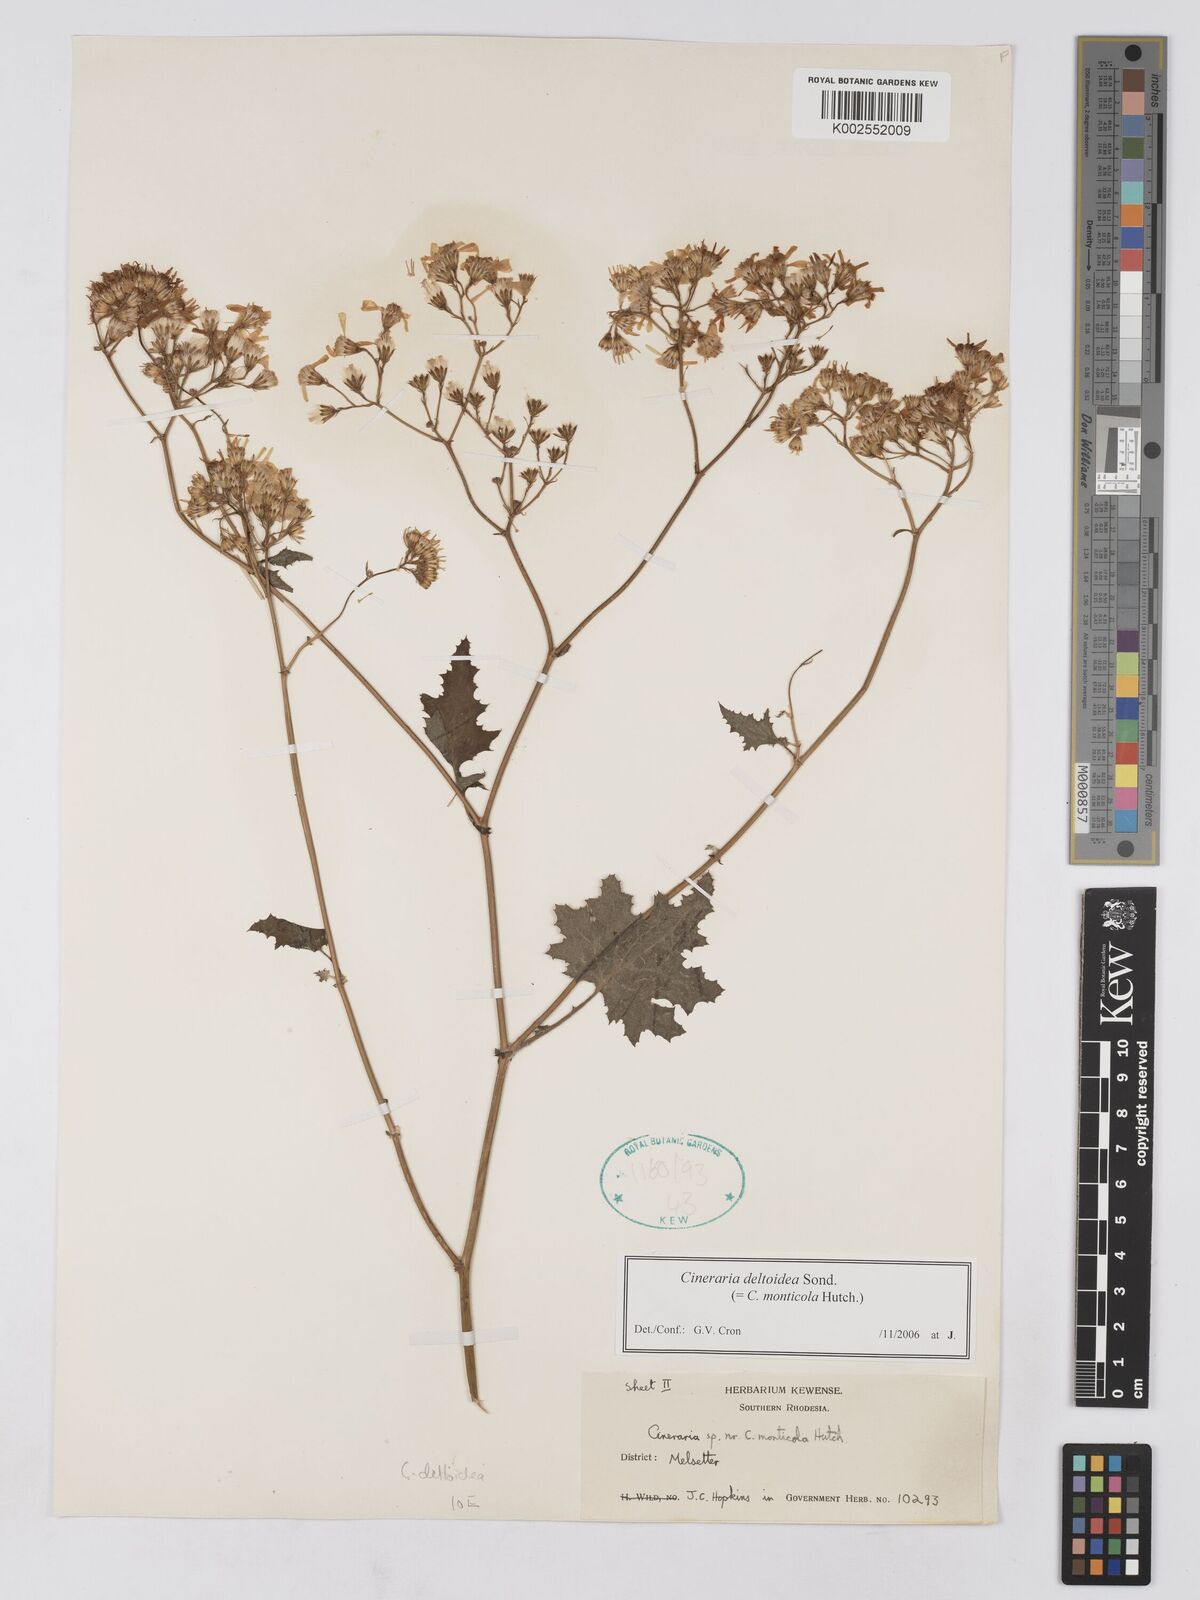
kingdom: Plantae
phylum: Tracheophyta
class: Magnoliopsida
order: Asterales
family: Asteraceae
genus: Cineraria
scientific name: Cineraria deltoidea
